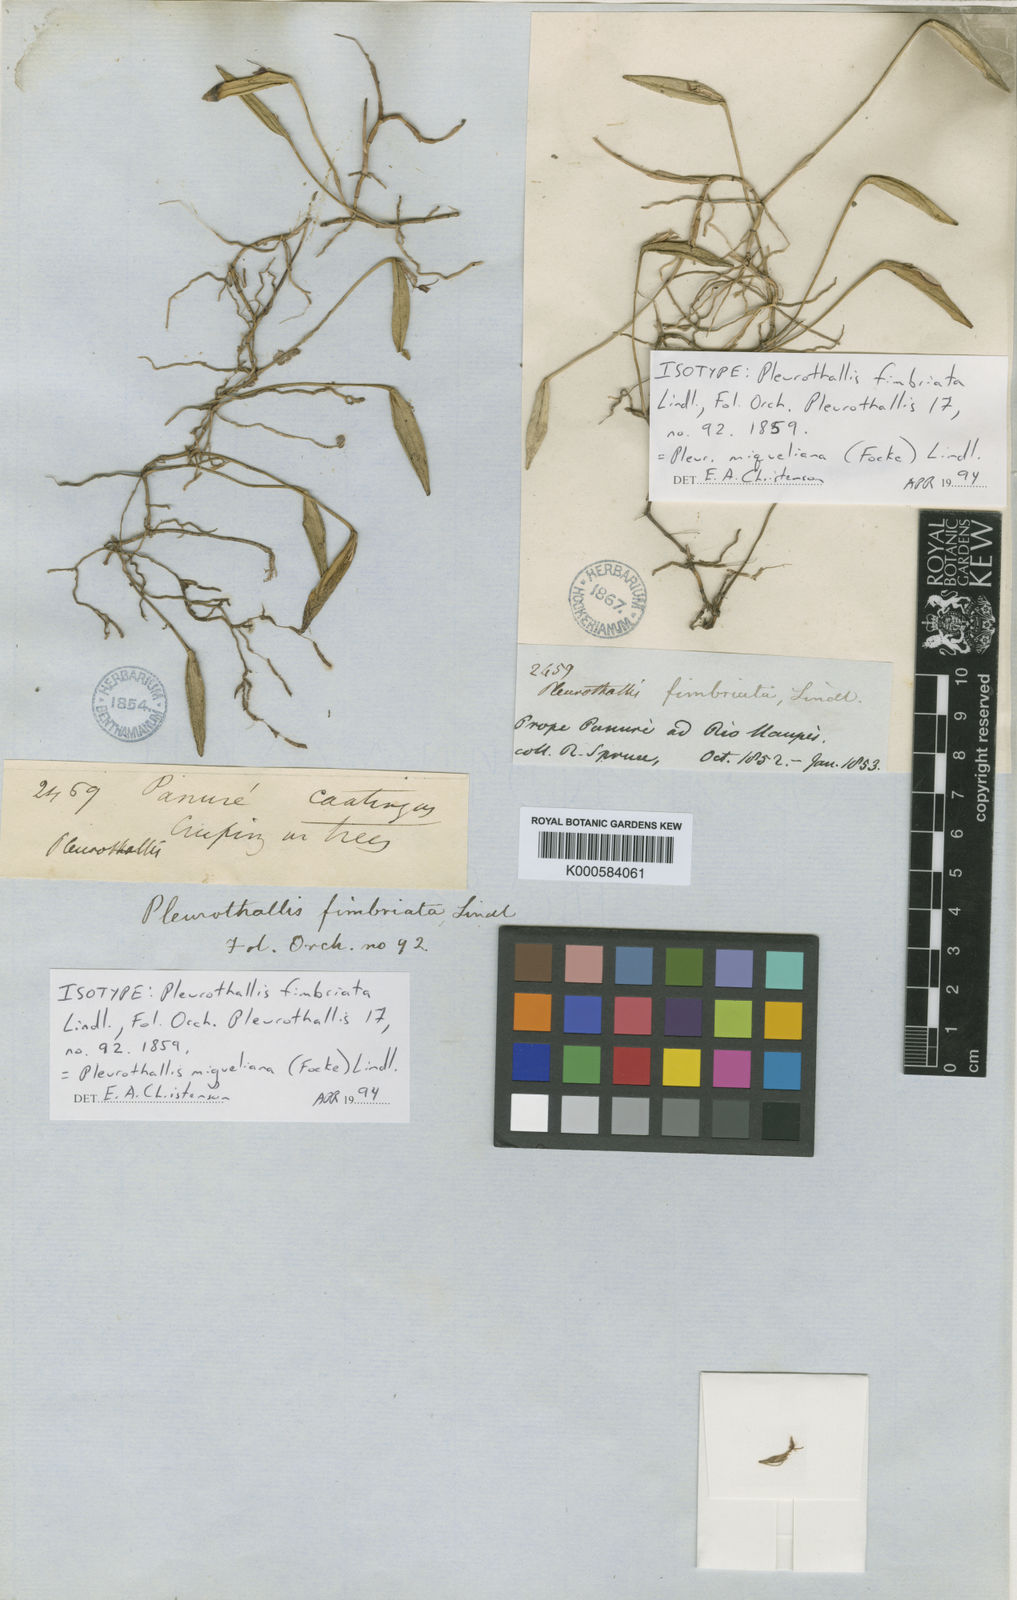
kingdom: Plantae
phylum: Tracheophyta
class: Liliopsida
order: Asparagales
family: Orchidaceae
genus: Acianthera
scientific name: Acianthera miqueliana
